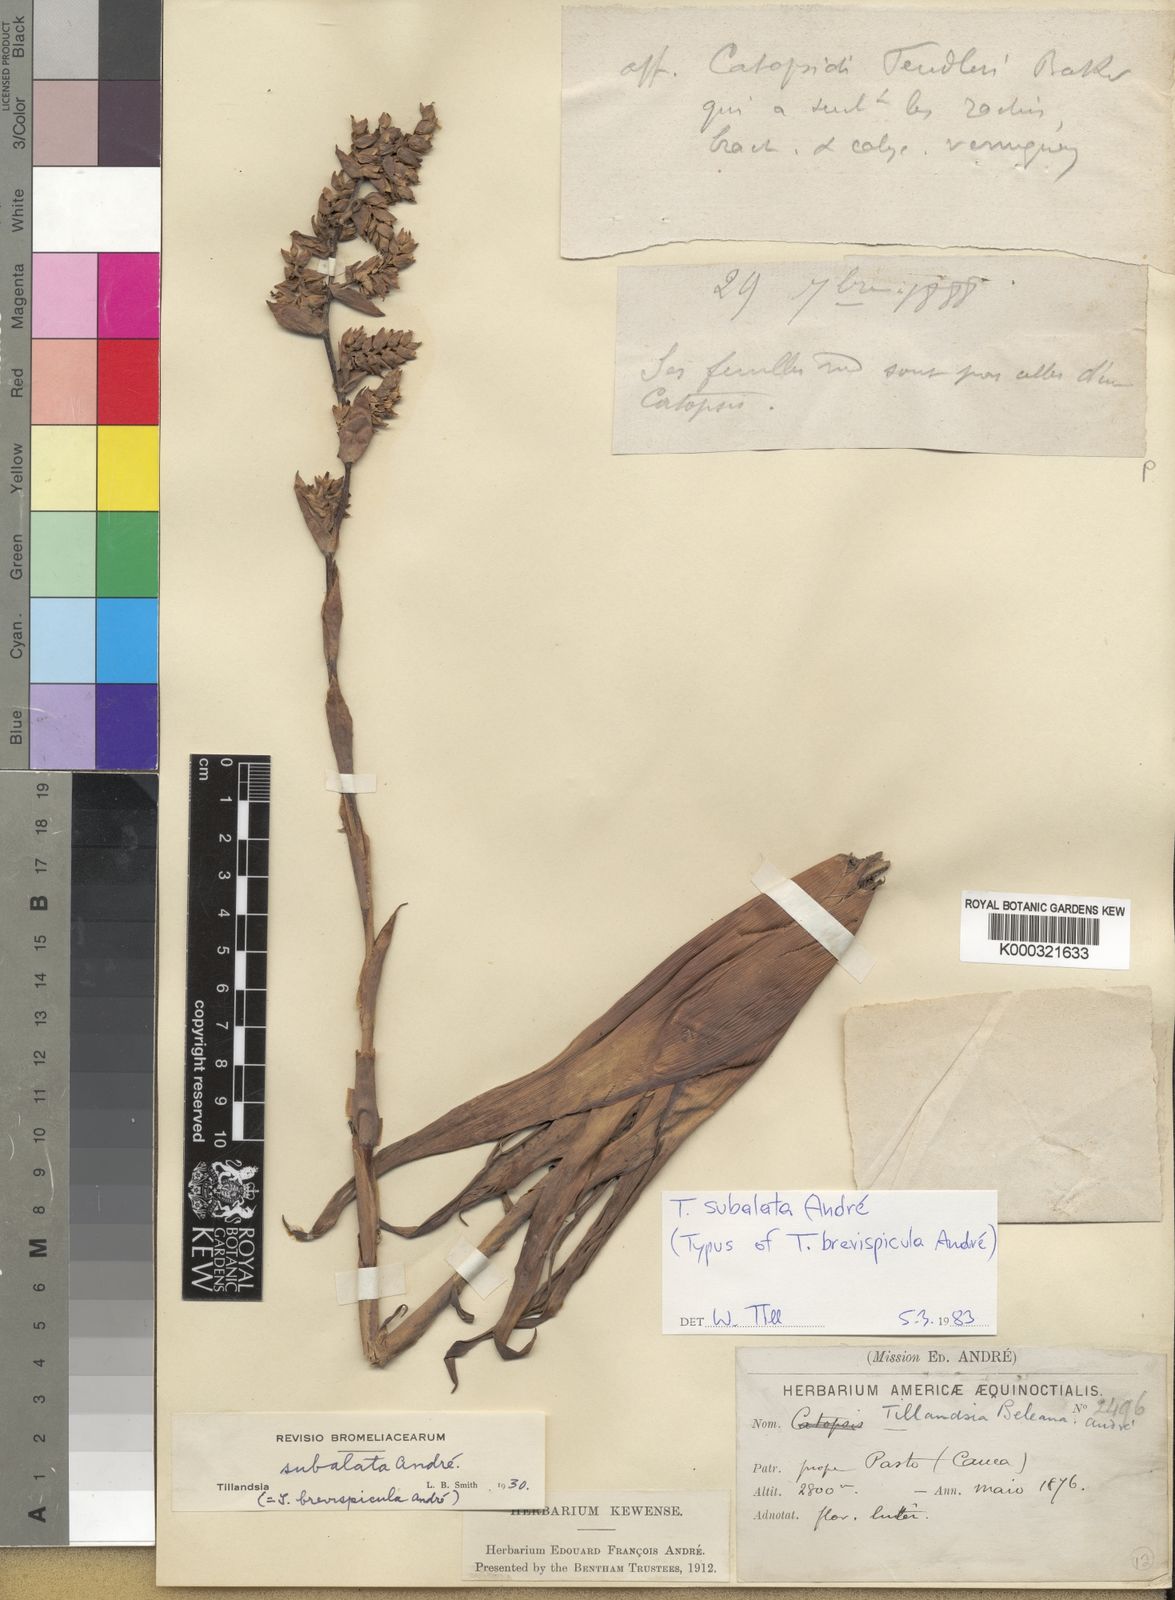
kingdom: Plantae
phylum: Tracheophyta
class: Liliopsida
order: Poales
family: Bromeliaceae
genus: Tillandsia
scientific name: Tillandsia
